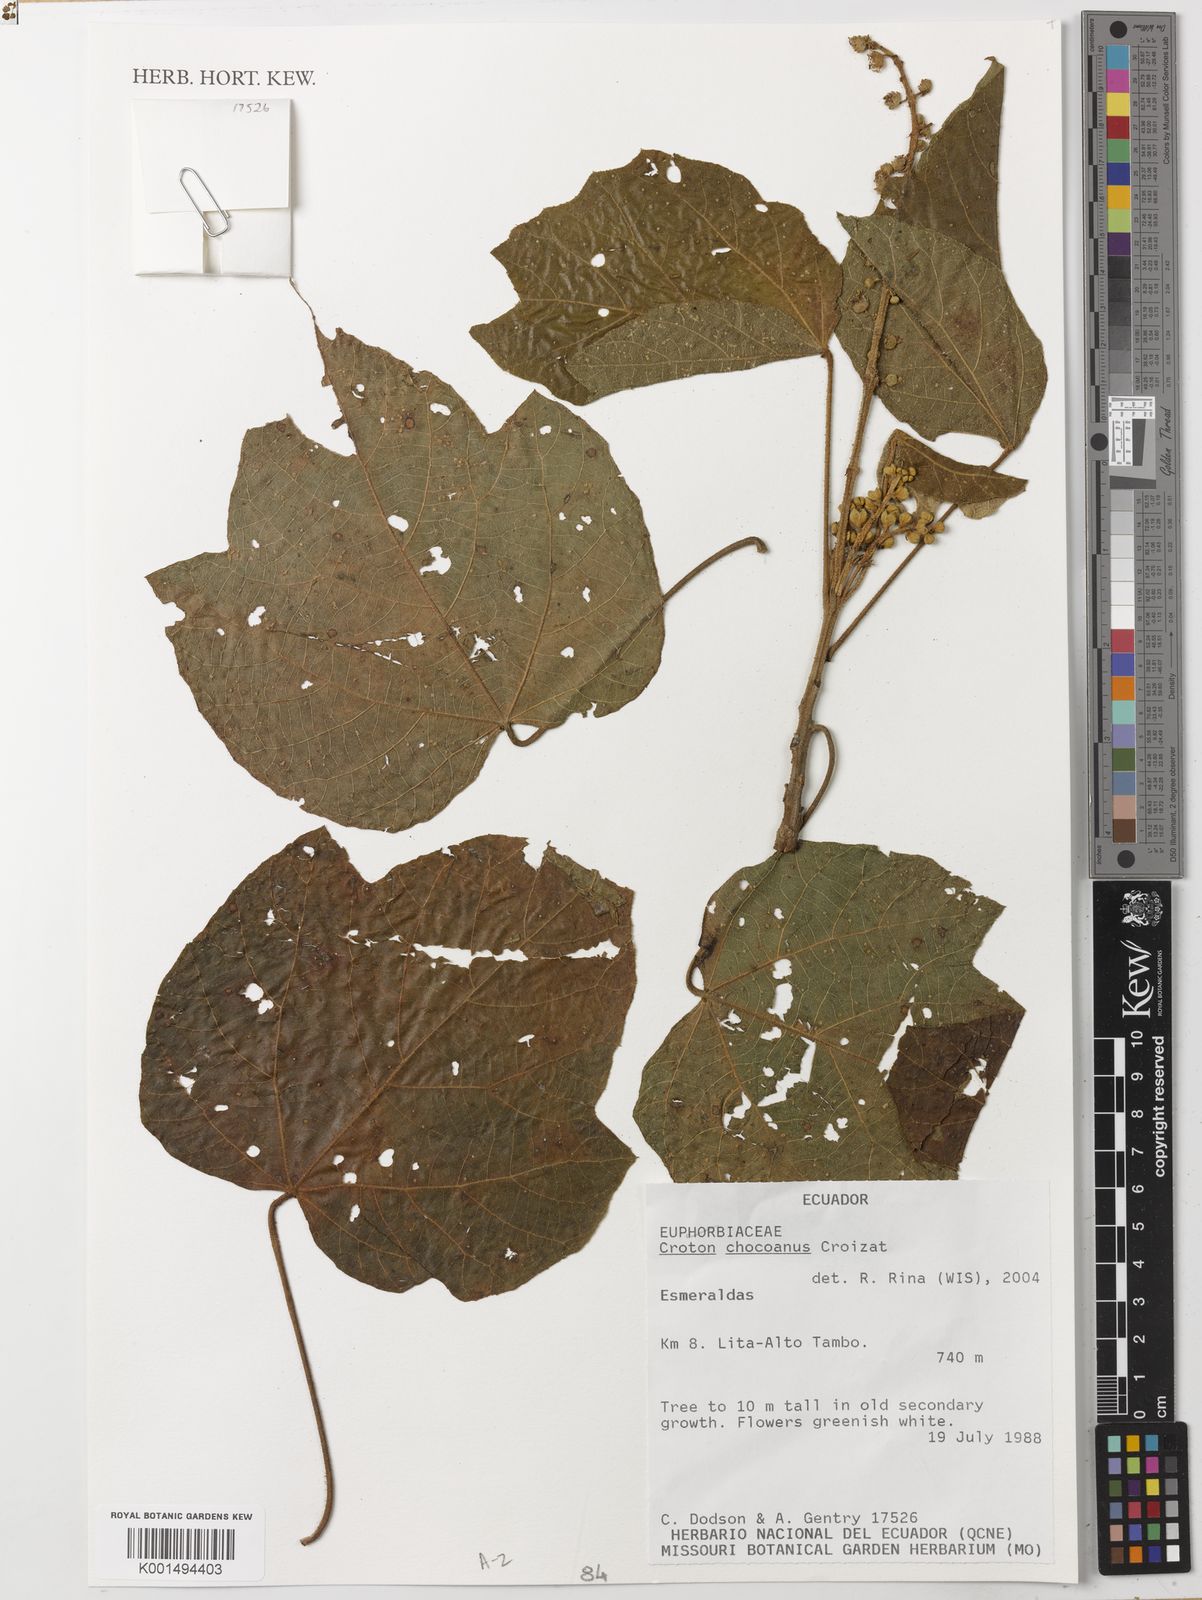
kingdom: Plantae
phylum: Tracheophyta
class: Magnoliopsida
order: Malpighiales
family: Euphorbiaceae
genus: Croton
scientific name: Croton chocoanus
